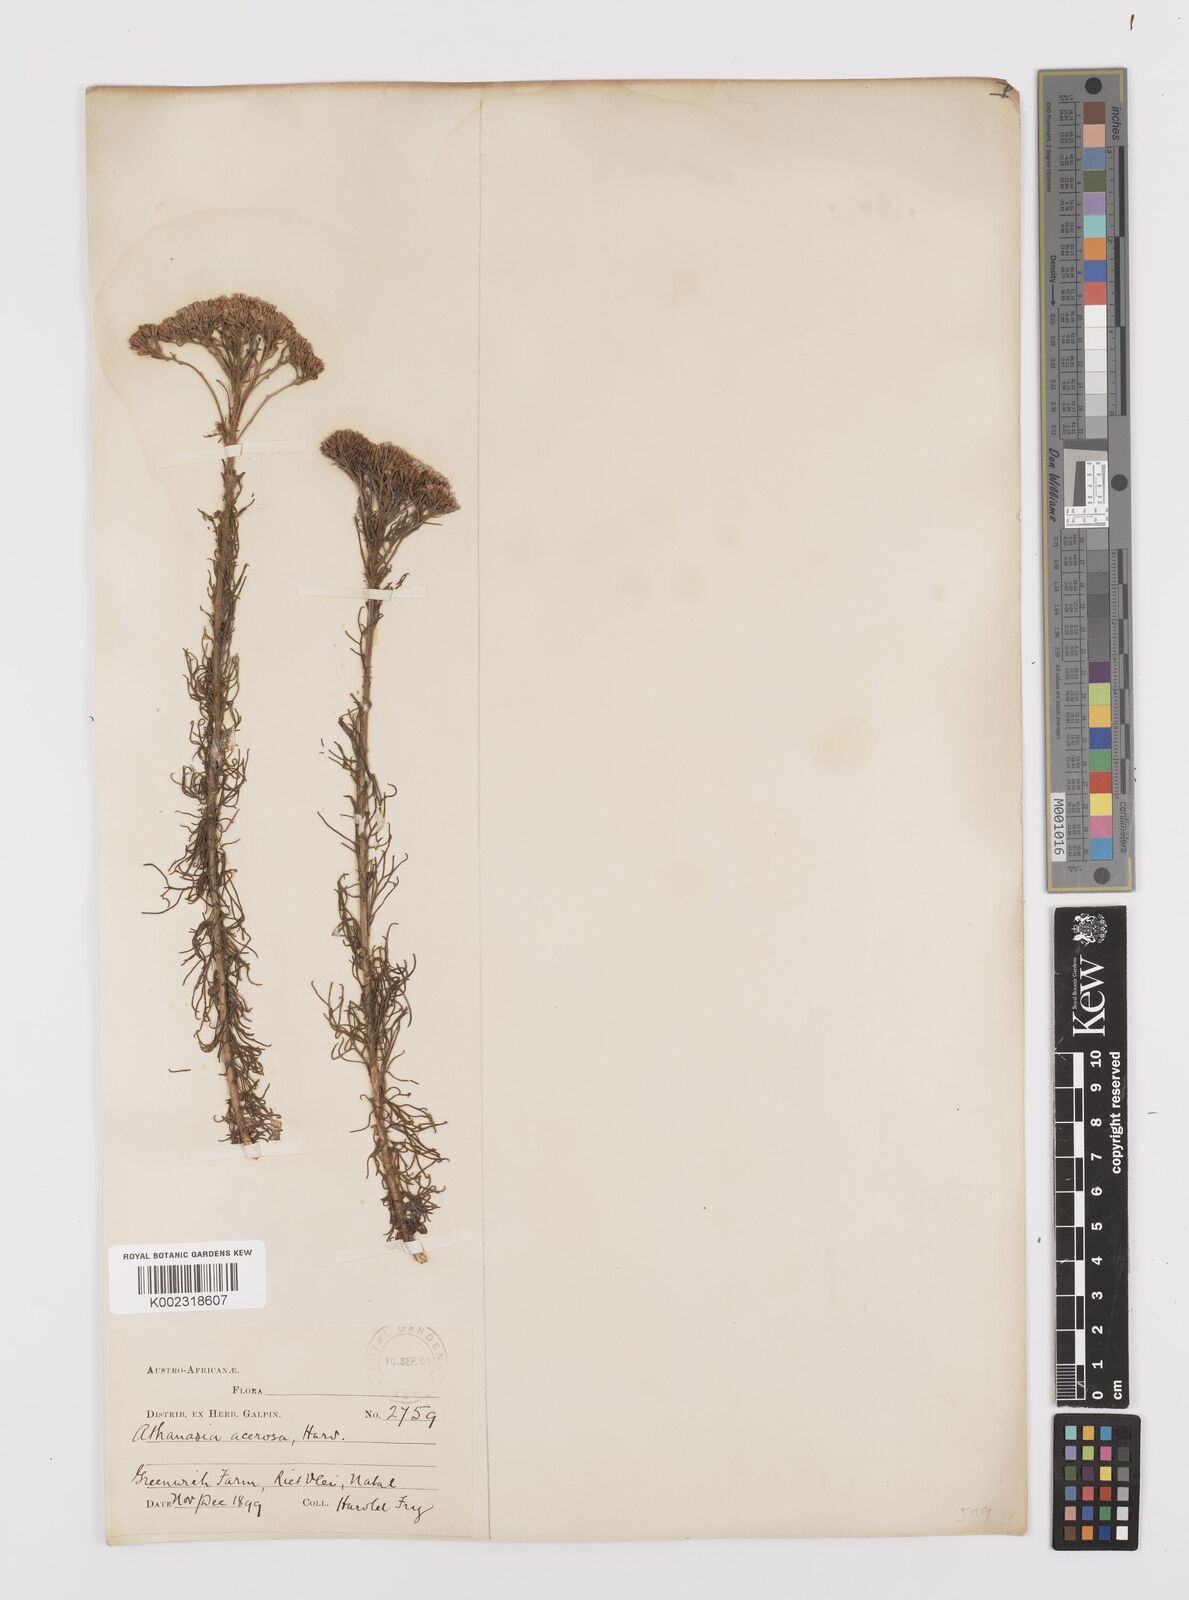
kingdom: Plantae
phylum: Tracheophyta
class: Magnoliopsida
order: Asterales
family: Asteraceae
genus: Phymaspermum
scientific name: Phymaspermum acerosum
